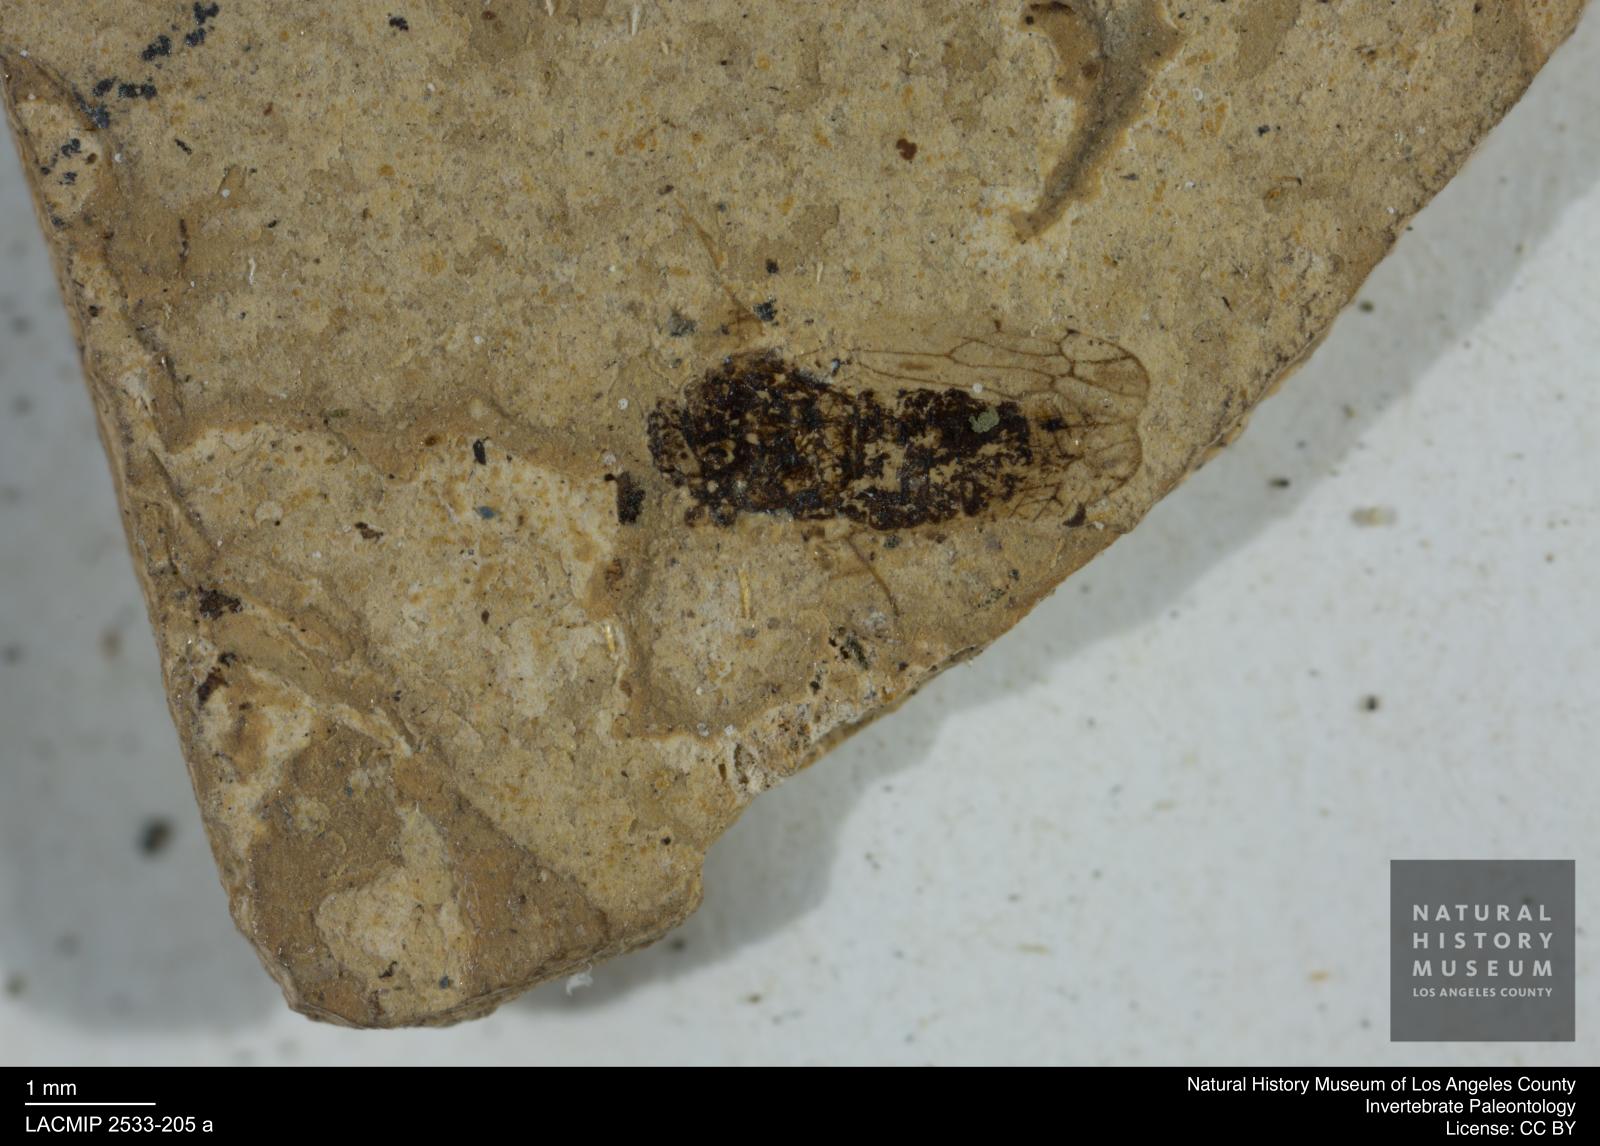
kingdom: Animalia
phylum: Arthropoda
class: Insecta
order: Hemiptera
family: Cicadellidae
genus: Thamnotettix
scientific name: Thamnotettix ustus
